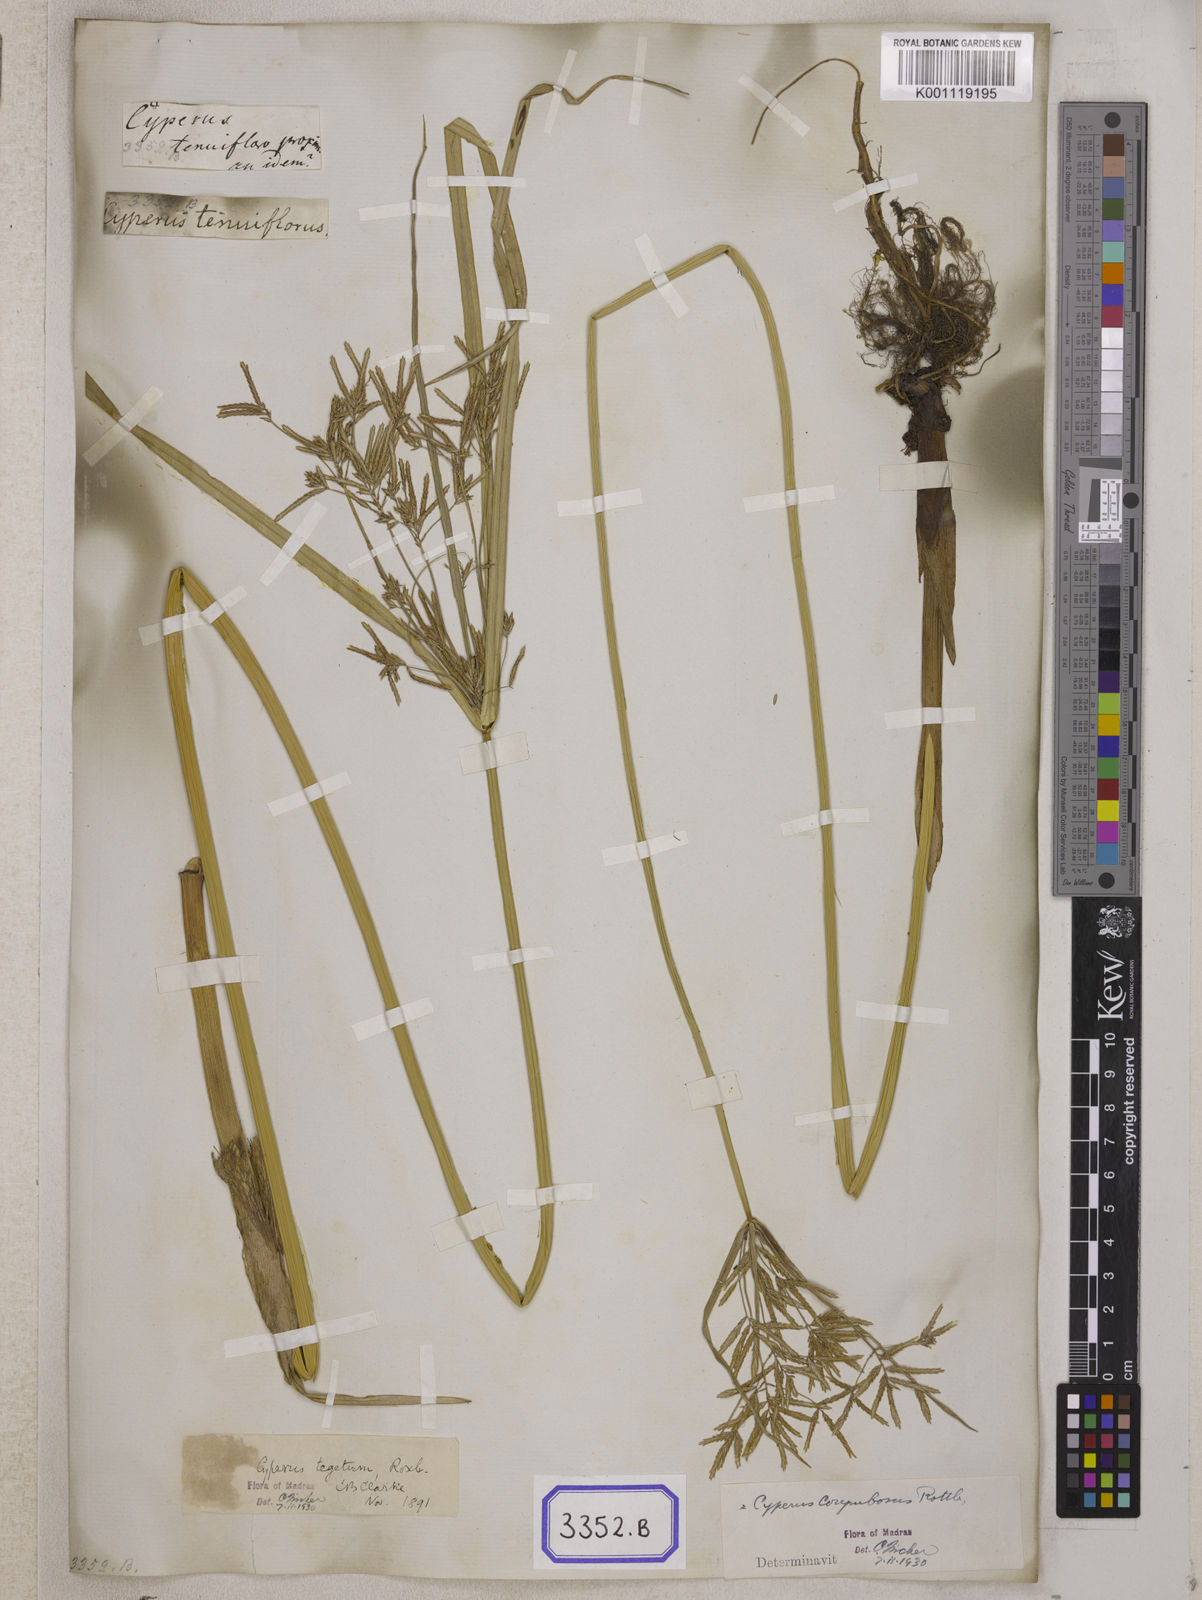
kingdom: Plantae
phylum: Tracheophyta
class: Liliopsida
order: Poales
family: Cyperaceae
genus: Cyperus
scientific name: Cyperus
